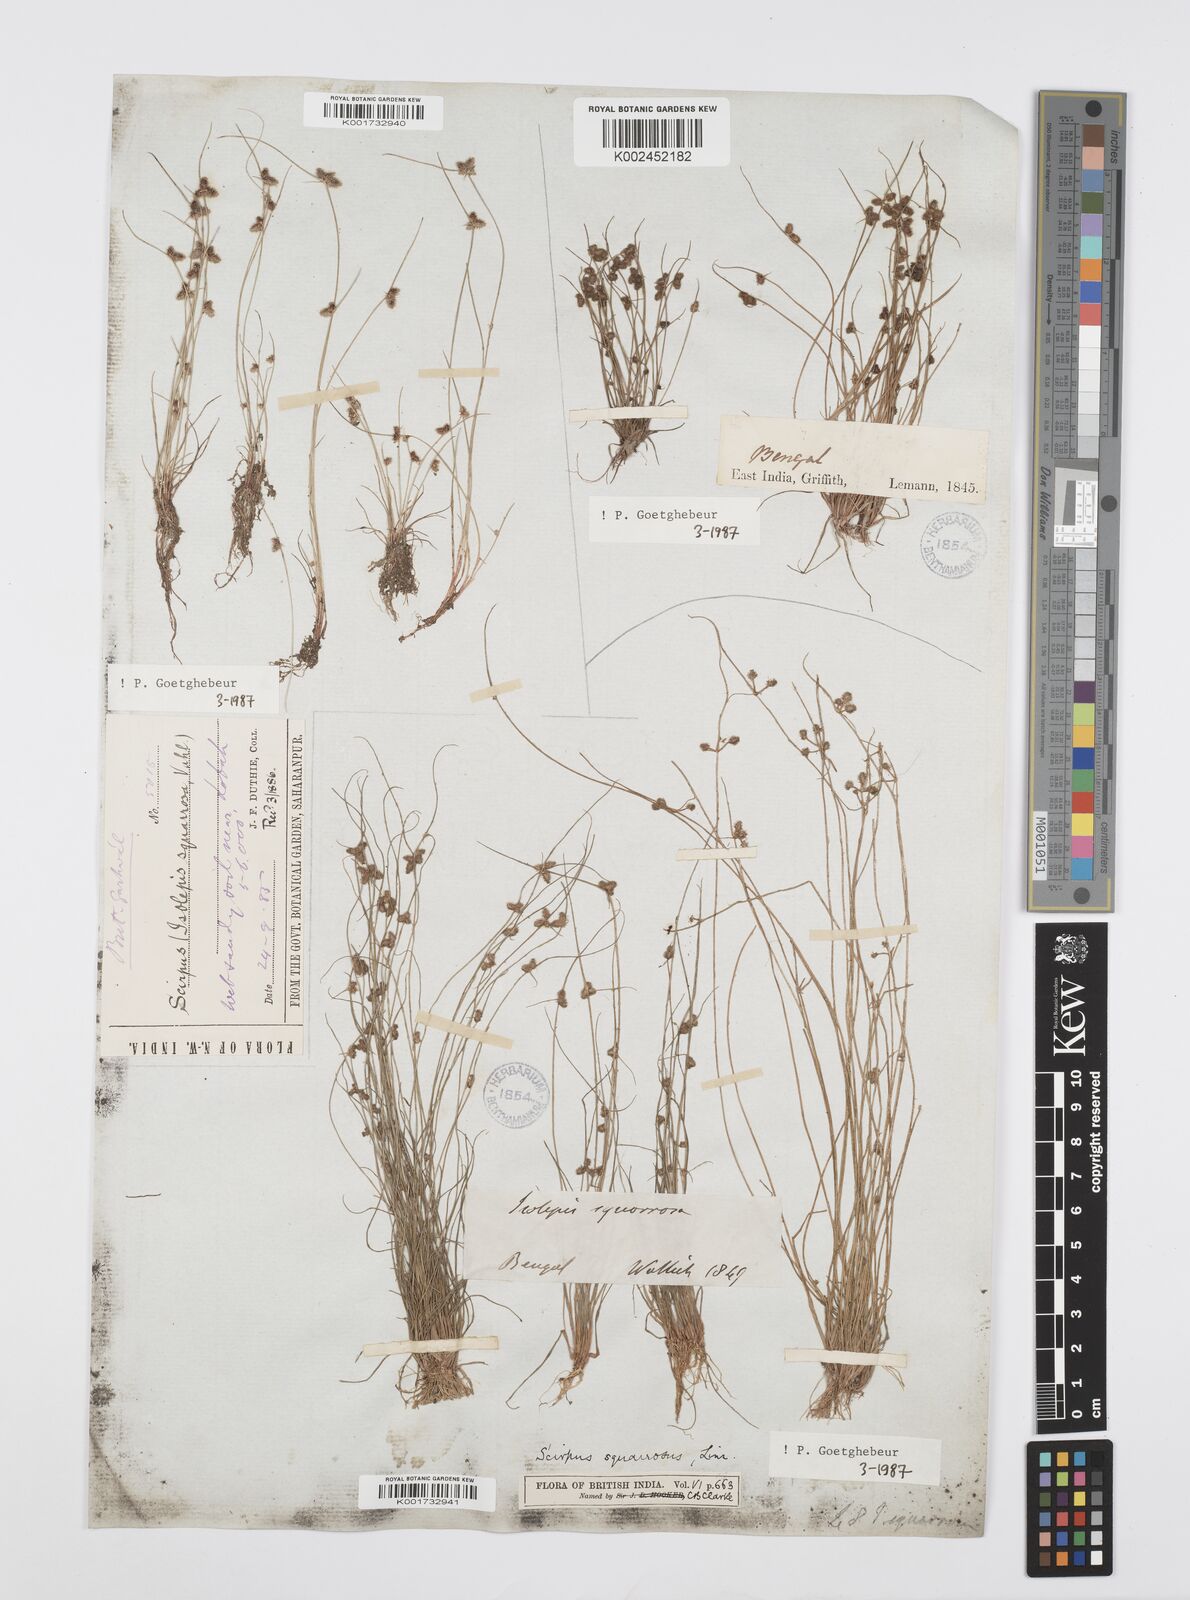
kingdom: Plantae
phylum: Tracheophyta
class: Liliopsida
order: Poales
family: Cyperaceae
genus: Cyperus
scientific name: Cyperus squarrosus
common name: Awned cyperus
